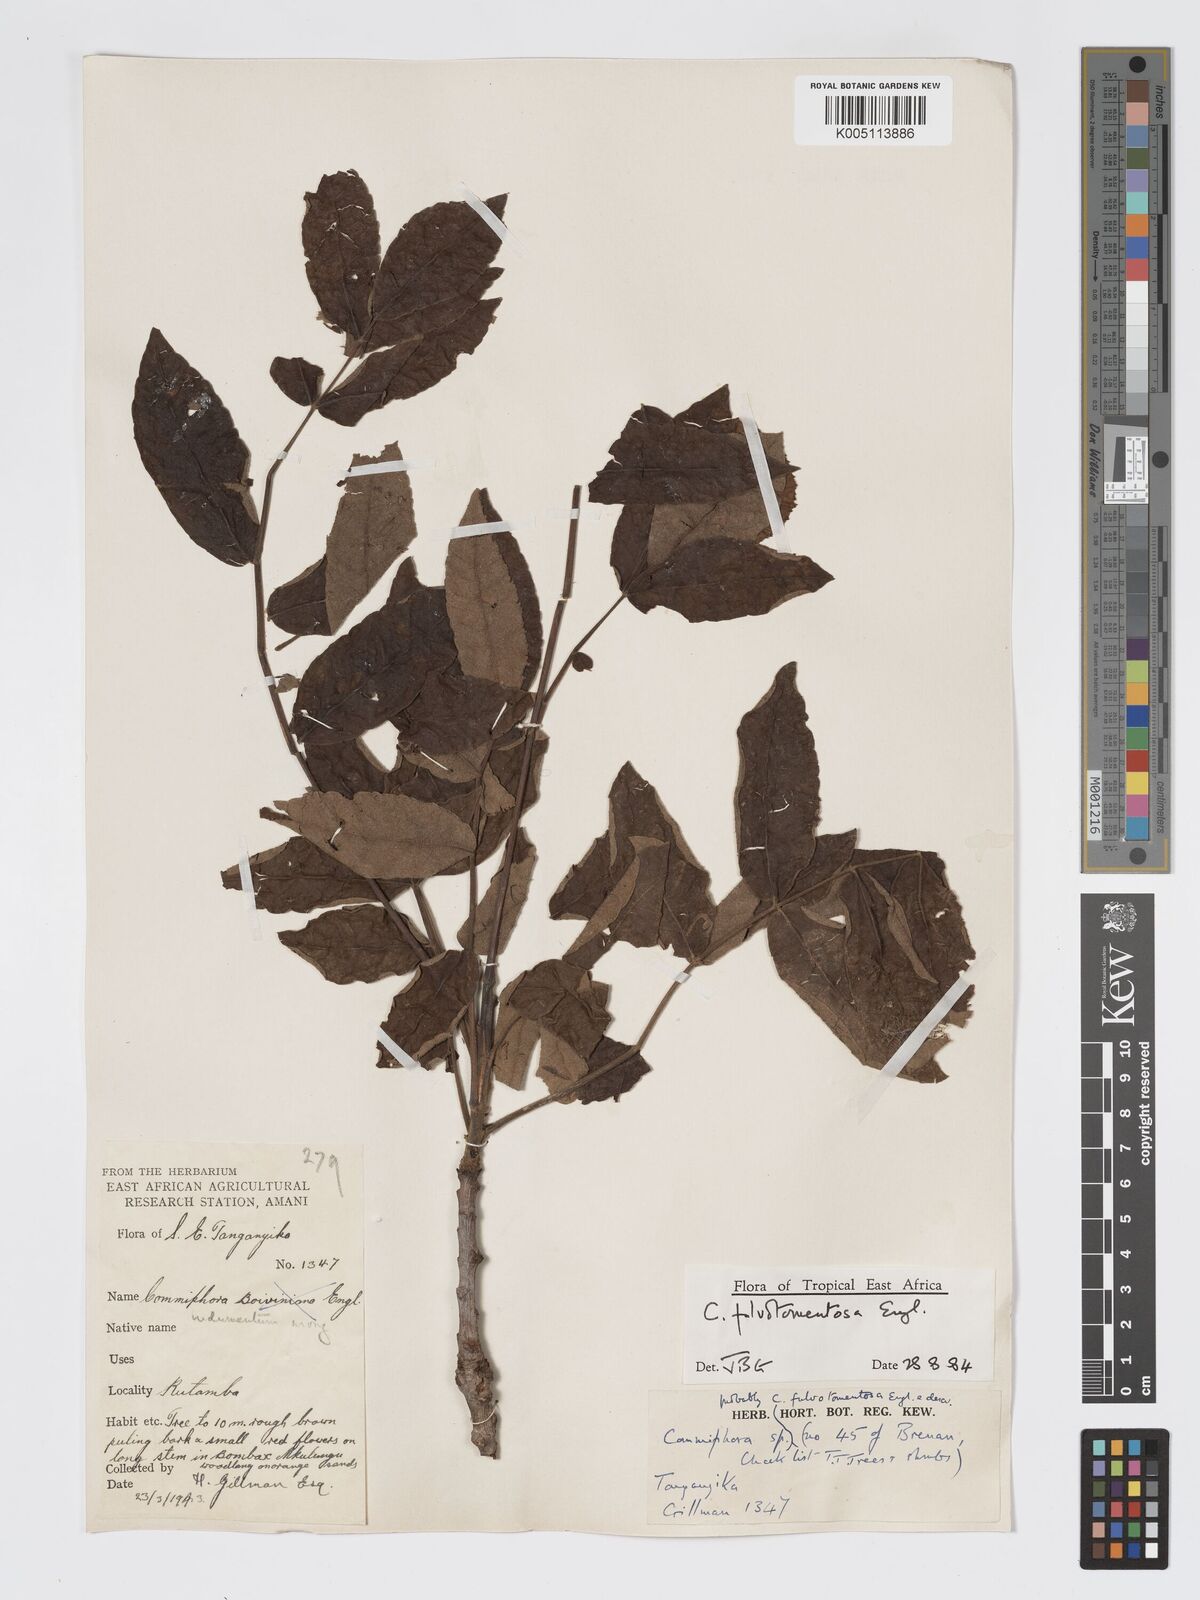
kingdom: Plantae
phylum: Tracheophyta
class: Magnoliopsida
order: Sapindales
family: Burseraceae
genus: Commiphora
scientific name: Commiphora fulvotomentosa
